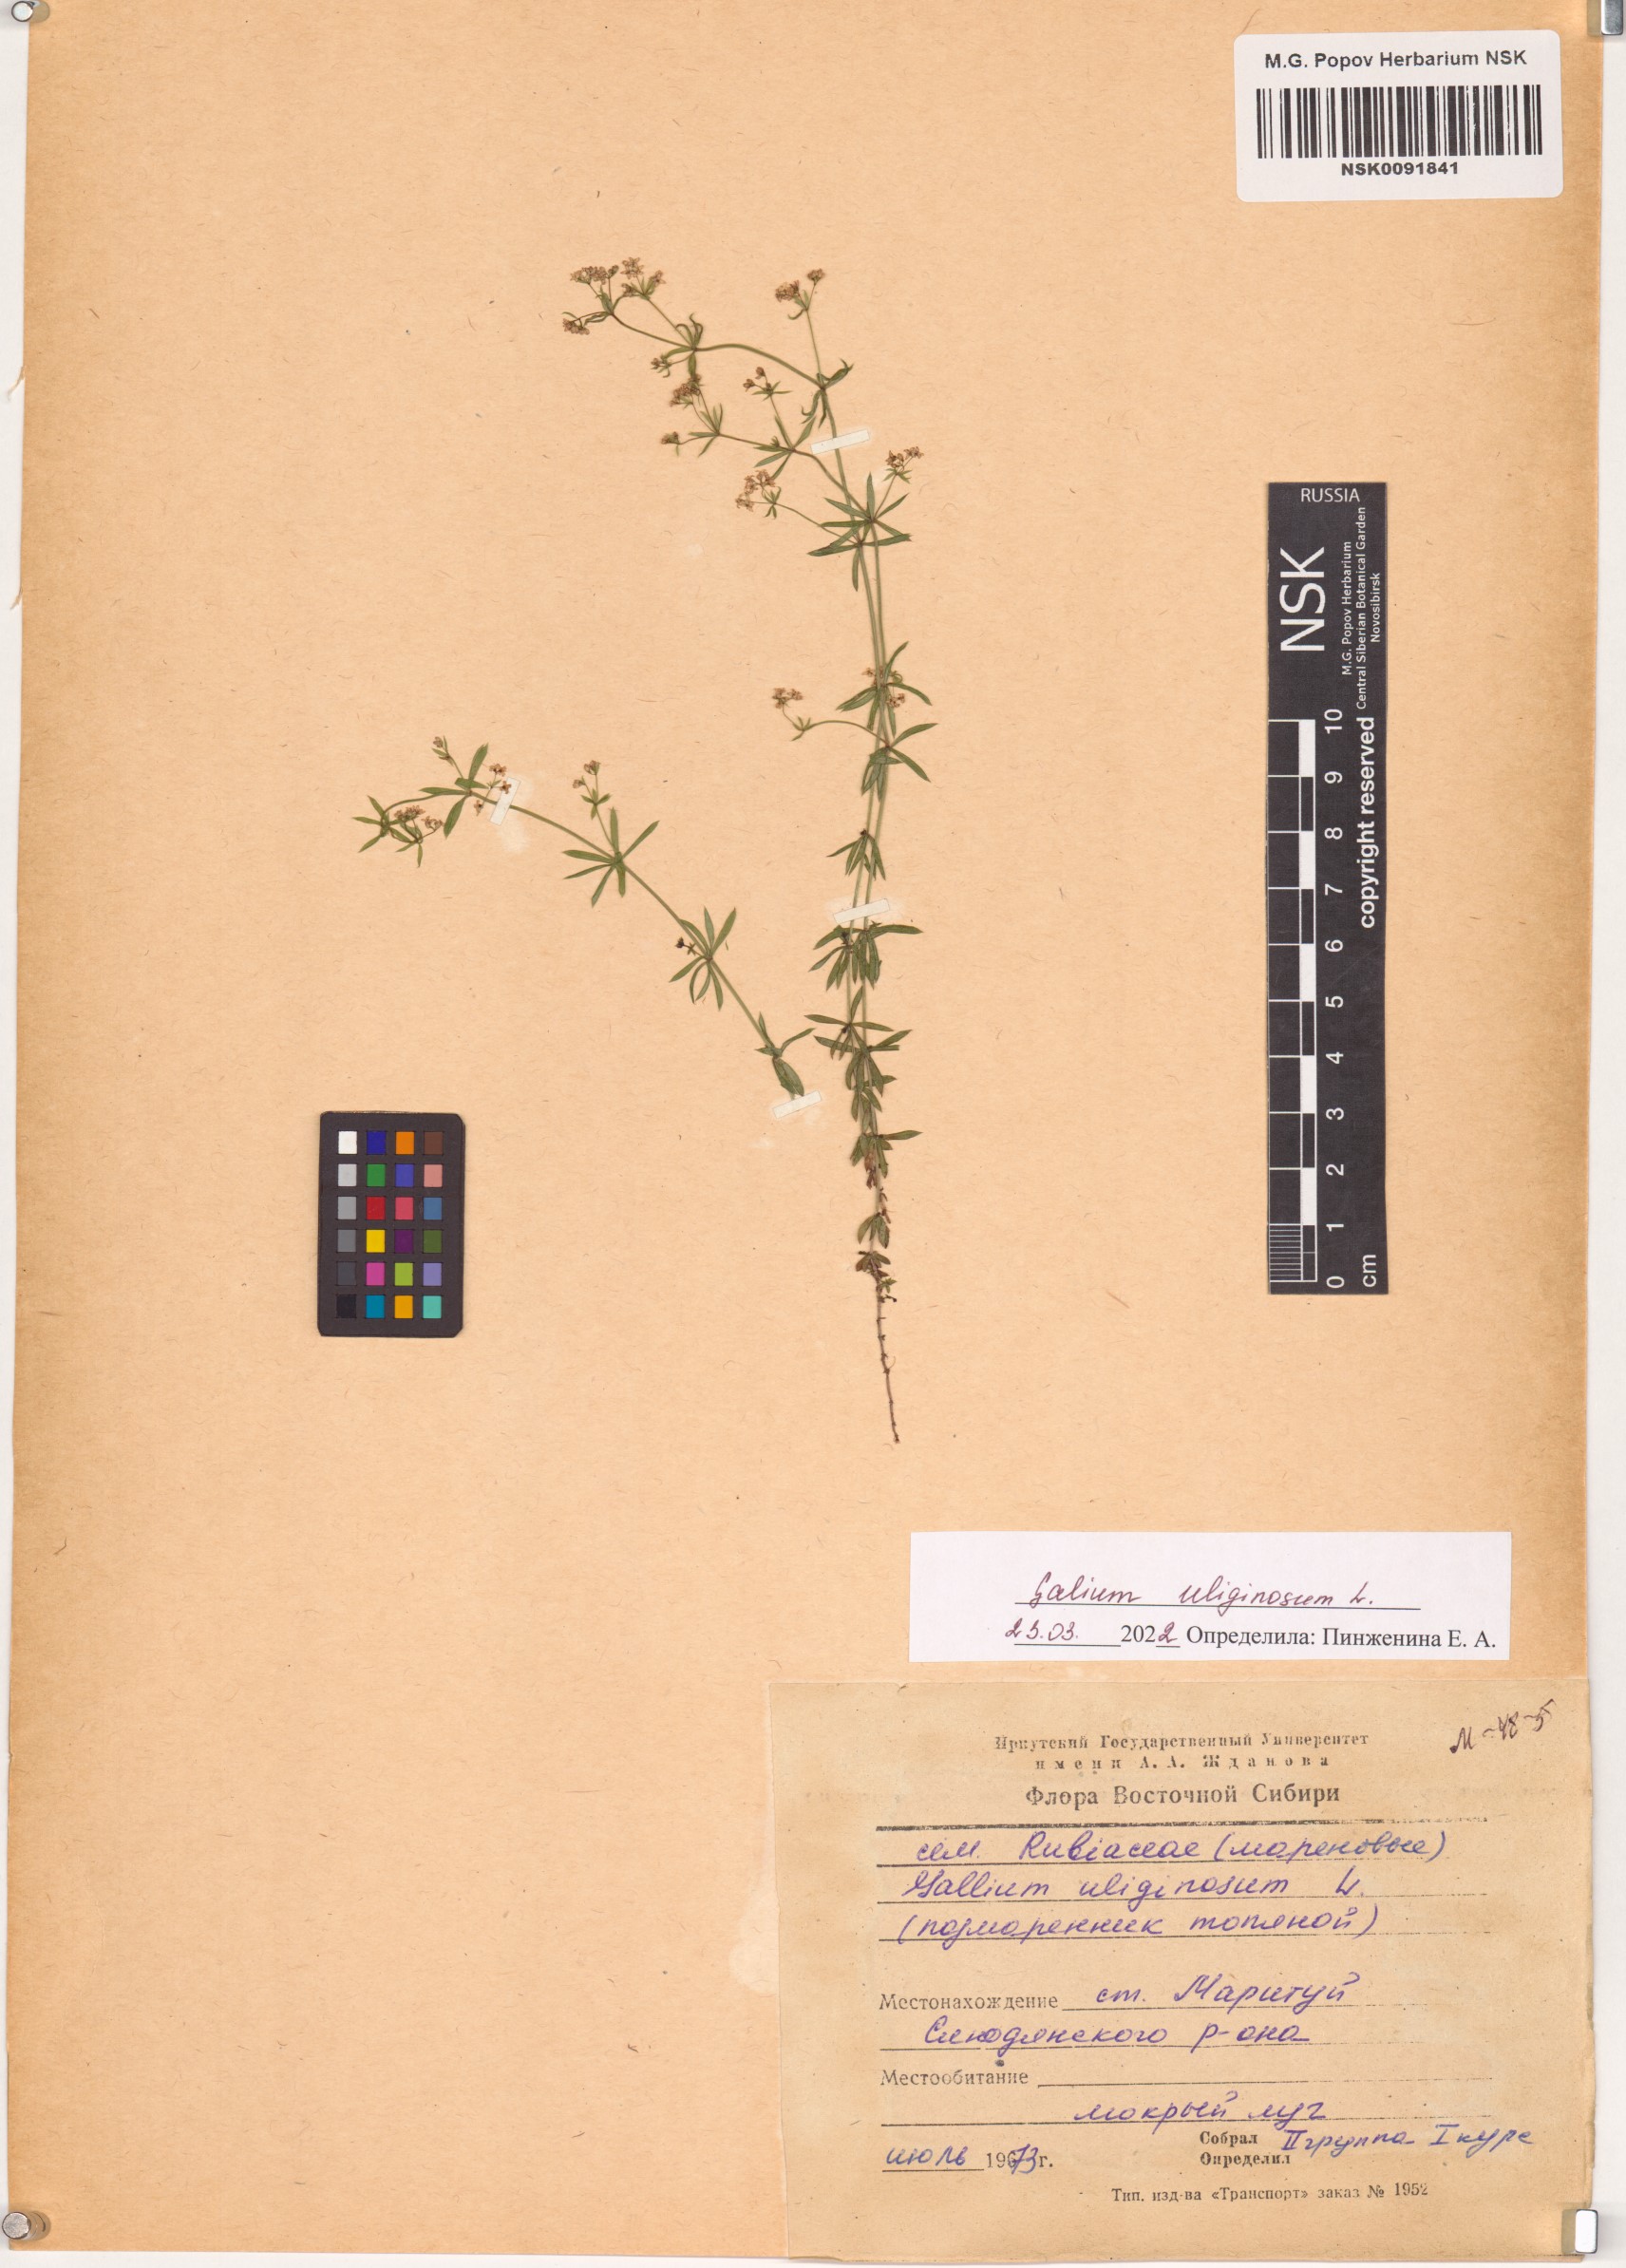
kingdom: Plantae
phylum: Tracheophyta
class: Magnoliopsida
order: Gentianales
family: Rubiaceae
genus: Galium
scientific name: Galium uliginosum
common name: Fen bedstraw
